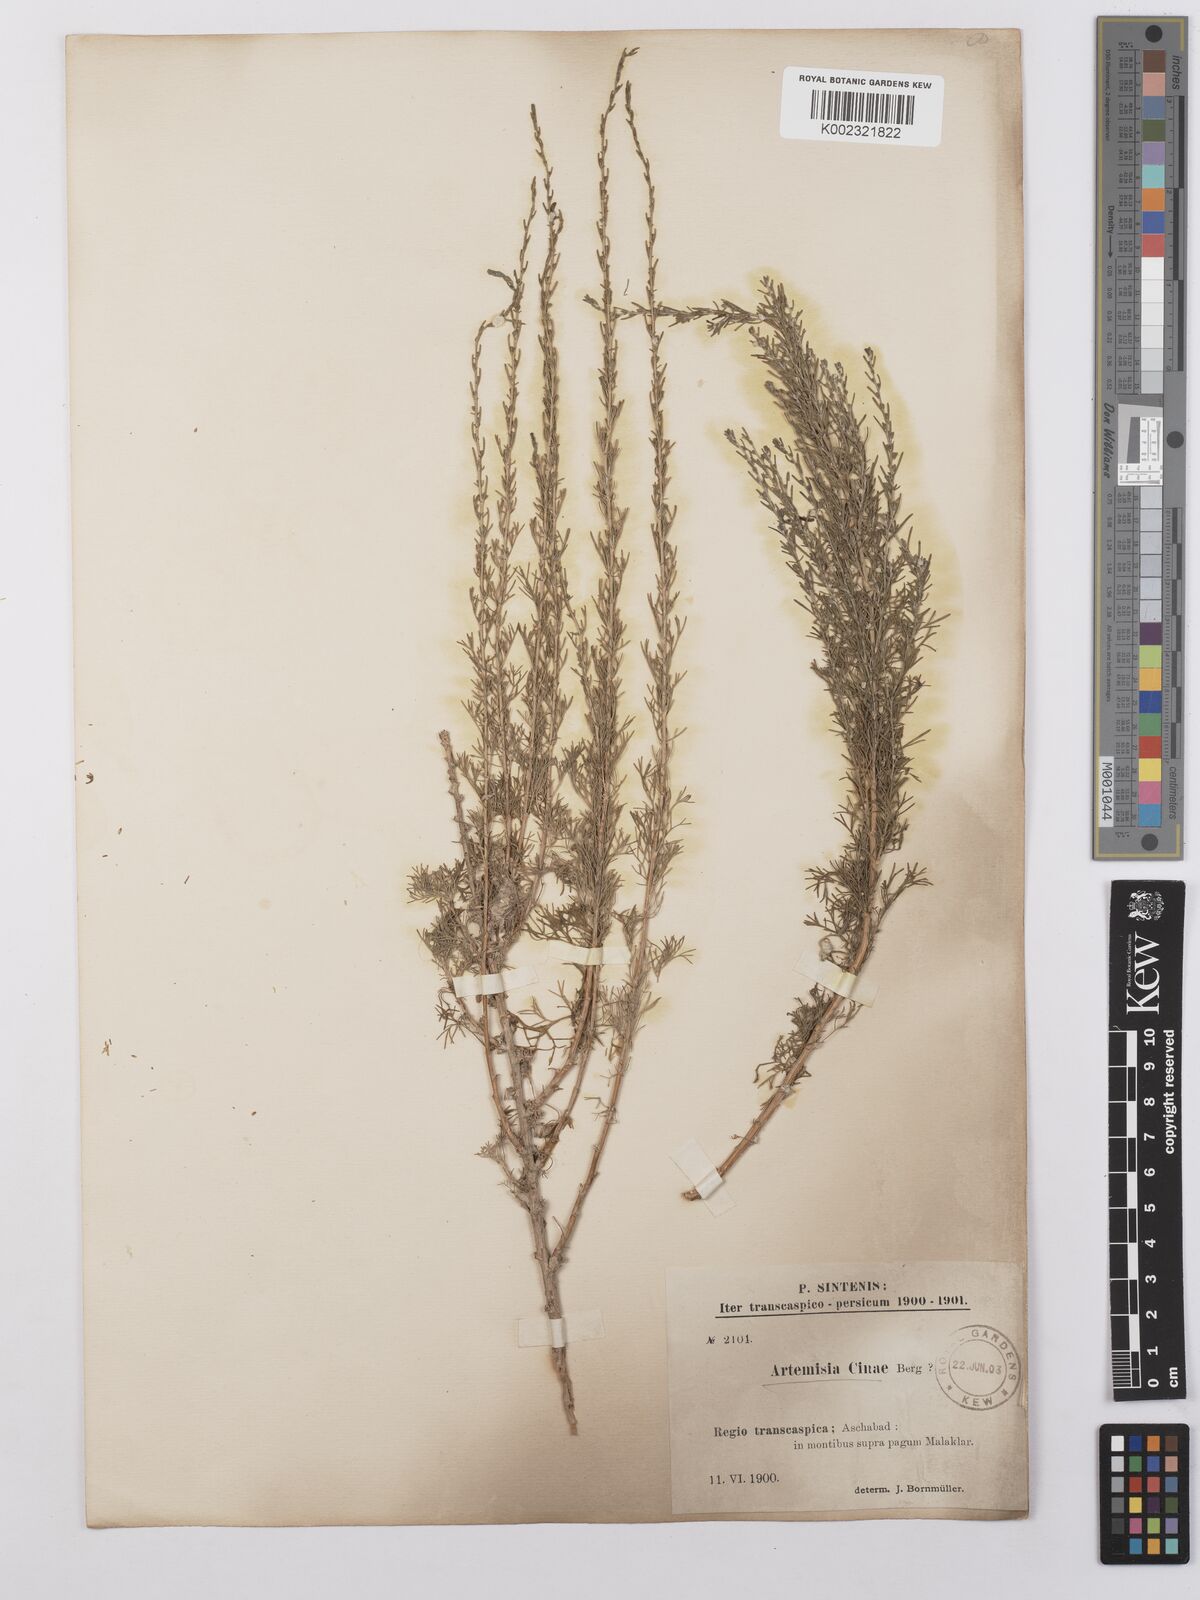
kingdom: Plantae
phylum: Tracheophyta
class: Magnoliopsida
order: Asterales
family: Asteraceae
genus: Artemisia
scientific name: Artemisia cina
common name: Levant wormseed
